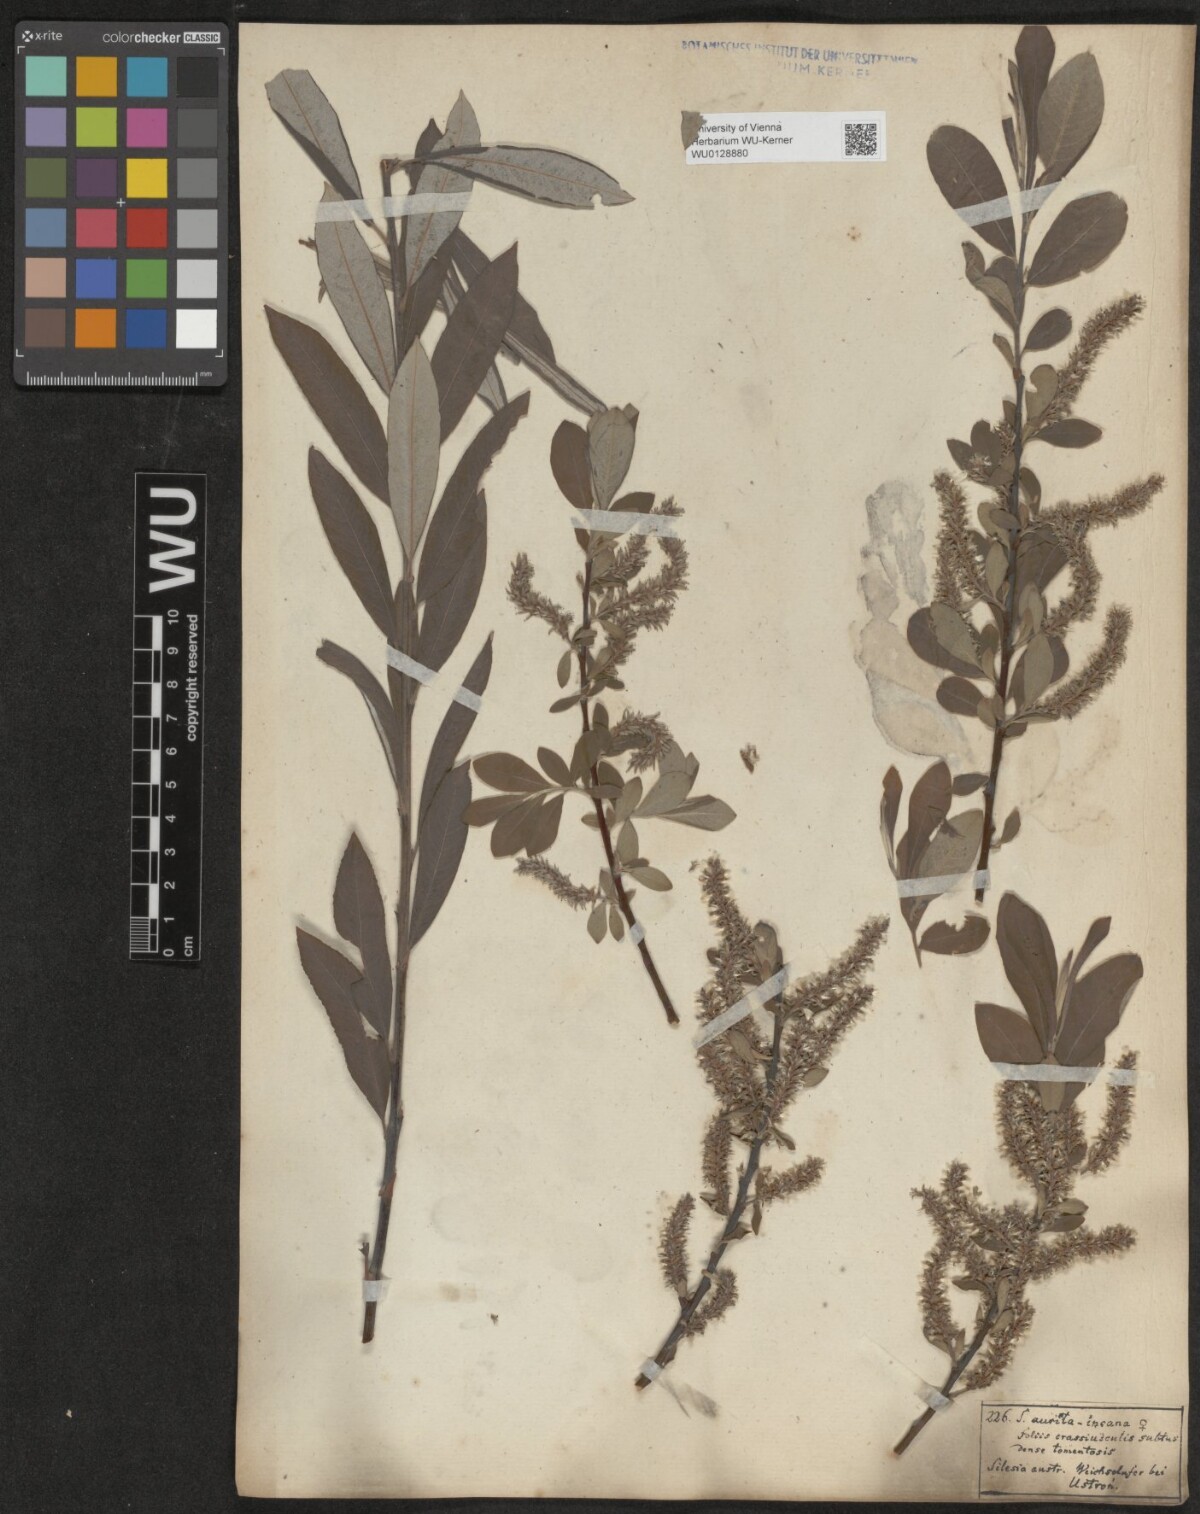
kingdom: Plantae
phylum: Tracheophyta
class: Magnoliopsida
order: Malpighiales
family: Salicaceae
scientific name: Salicaceae
